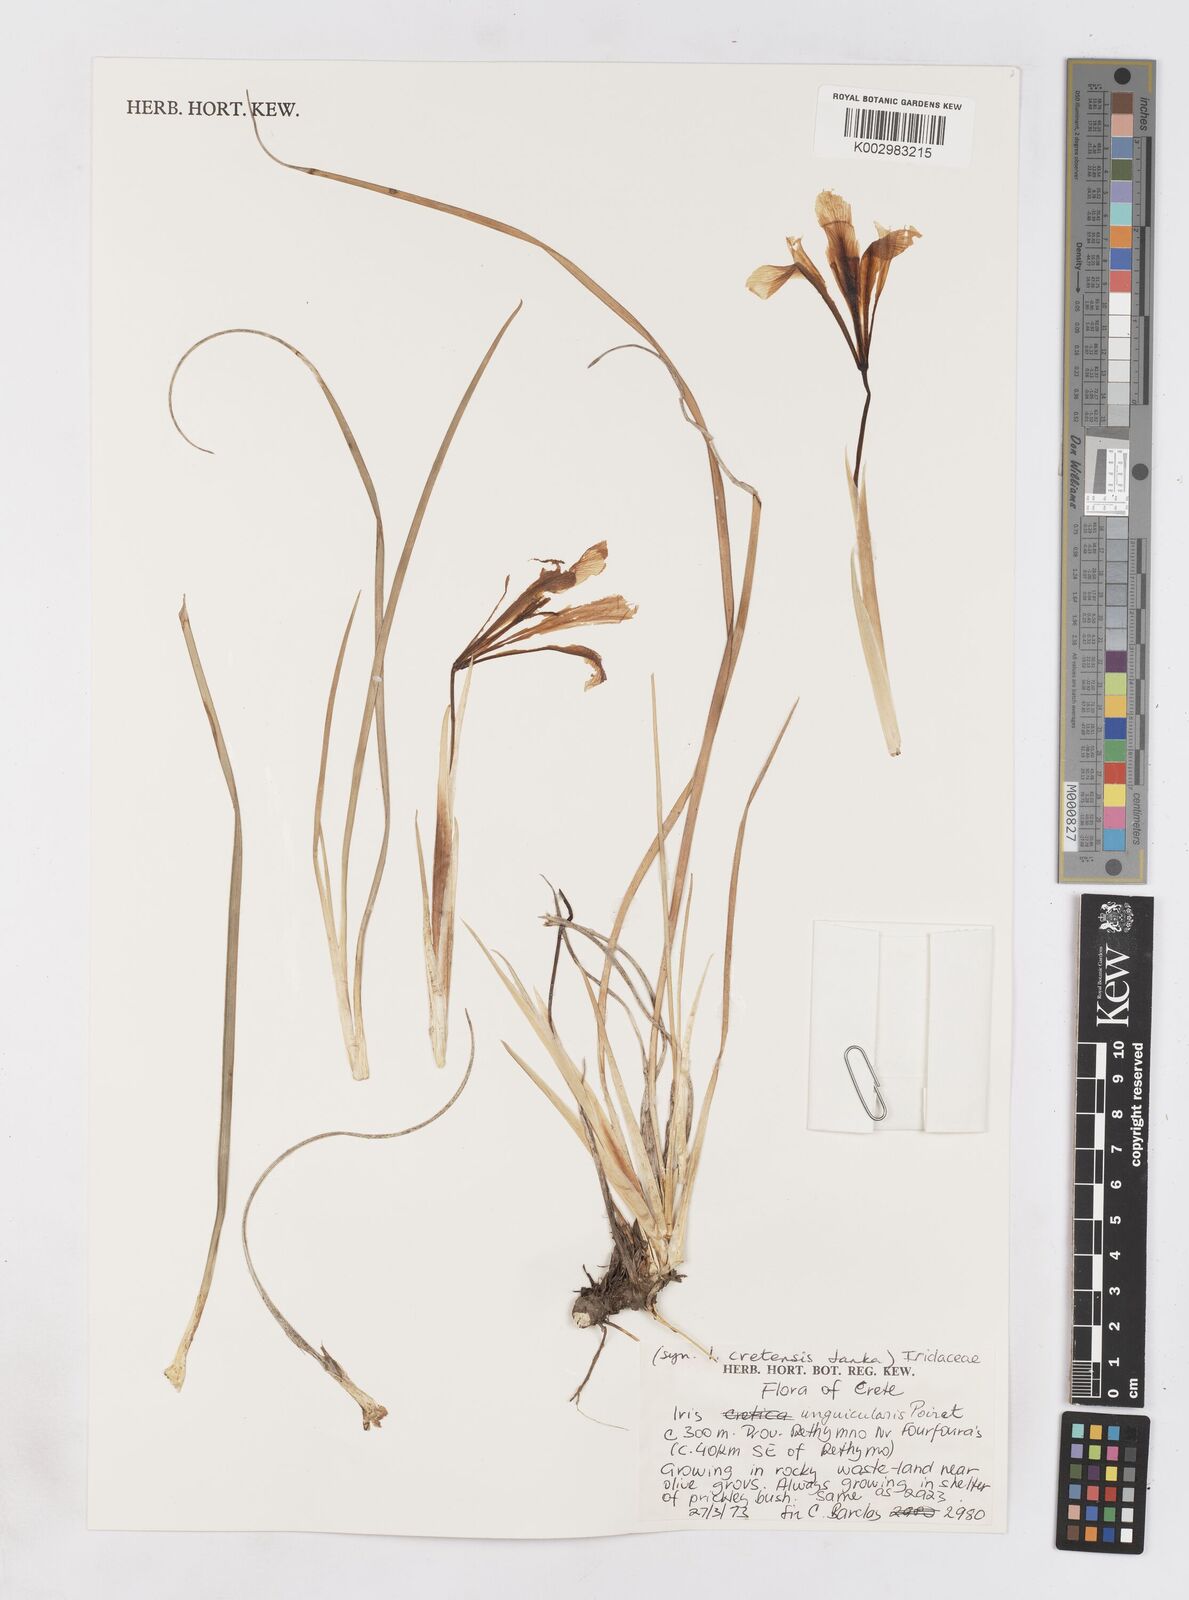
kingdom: Plantae
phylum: Tracheophyta
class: Liliopsida
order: Asparagales
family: Iridaceae
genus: Iris
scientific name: Iris unguicularis
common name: Algerian iris
